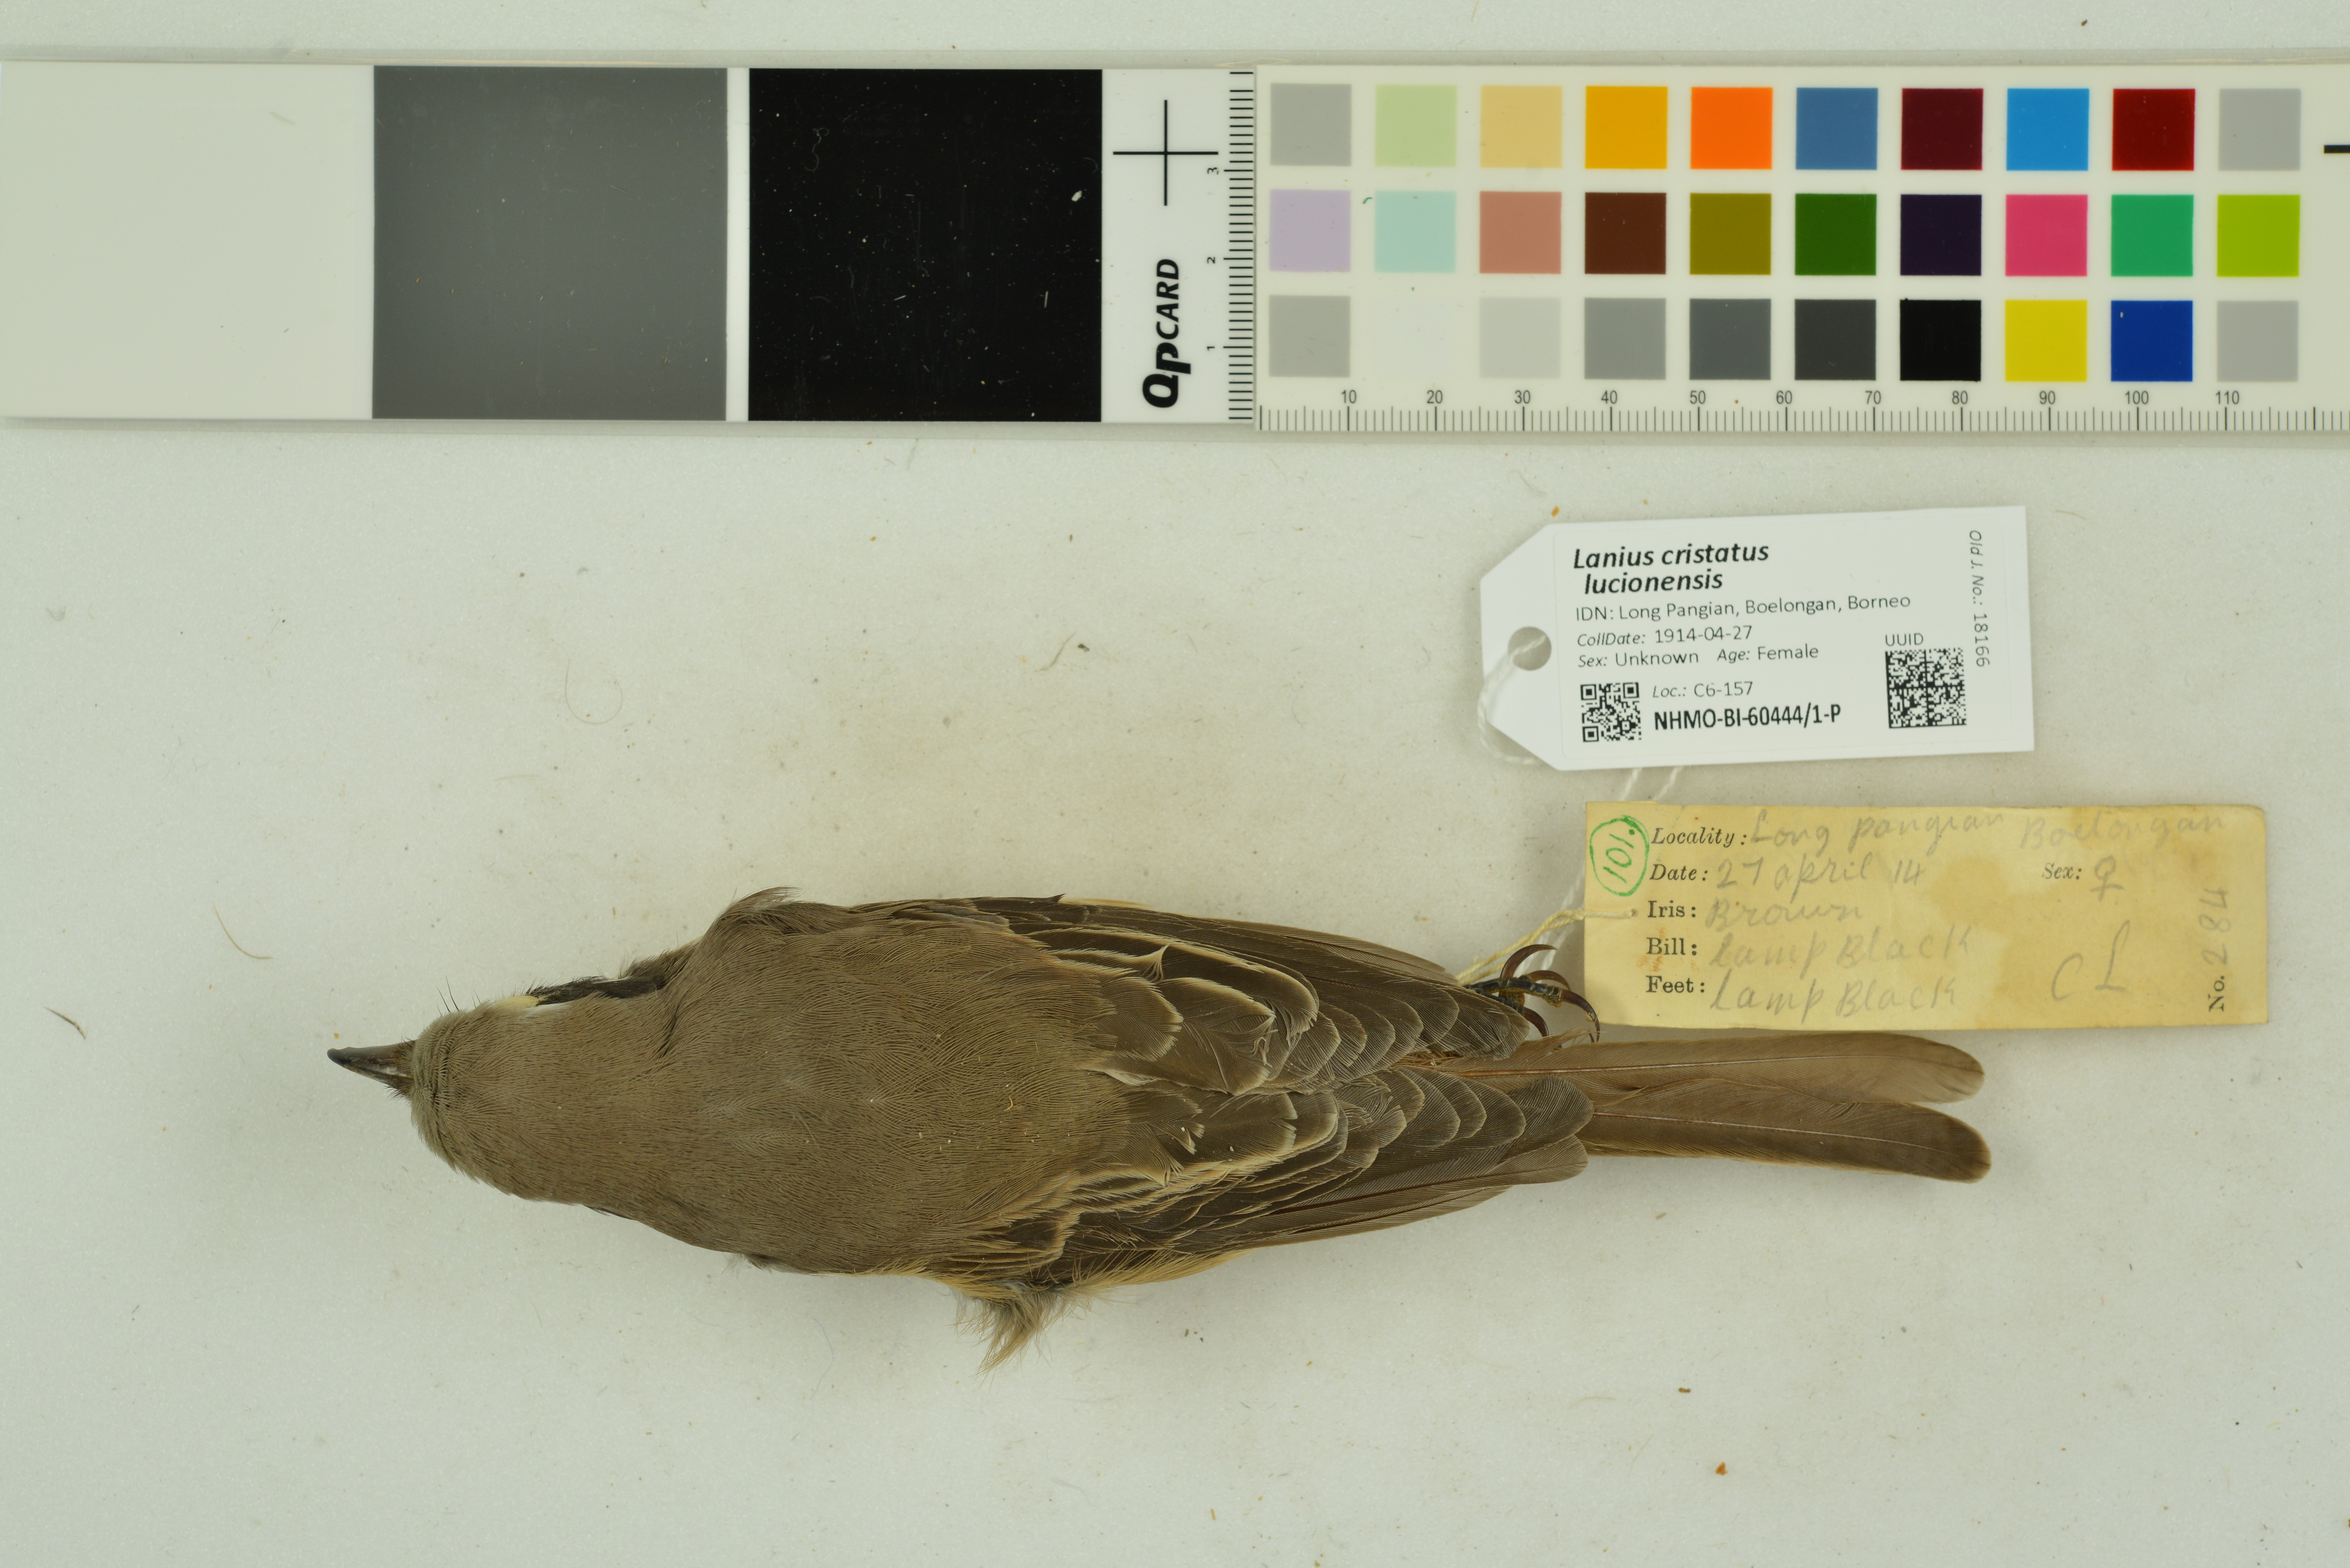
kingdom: Animalia
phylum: Chordata
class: Aves
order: Passeriformes
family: Laniidae
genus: Lanius
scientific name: Lanius cristatus
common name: Brown shrike
